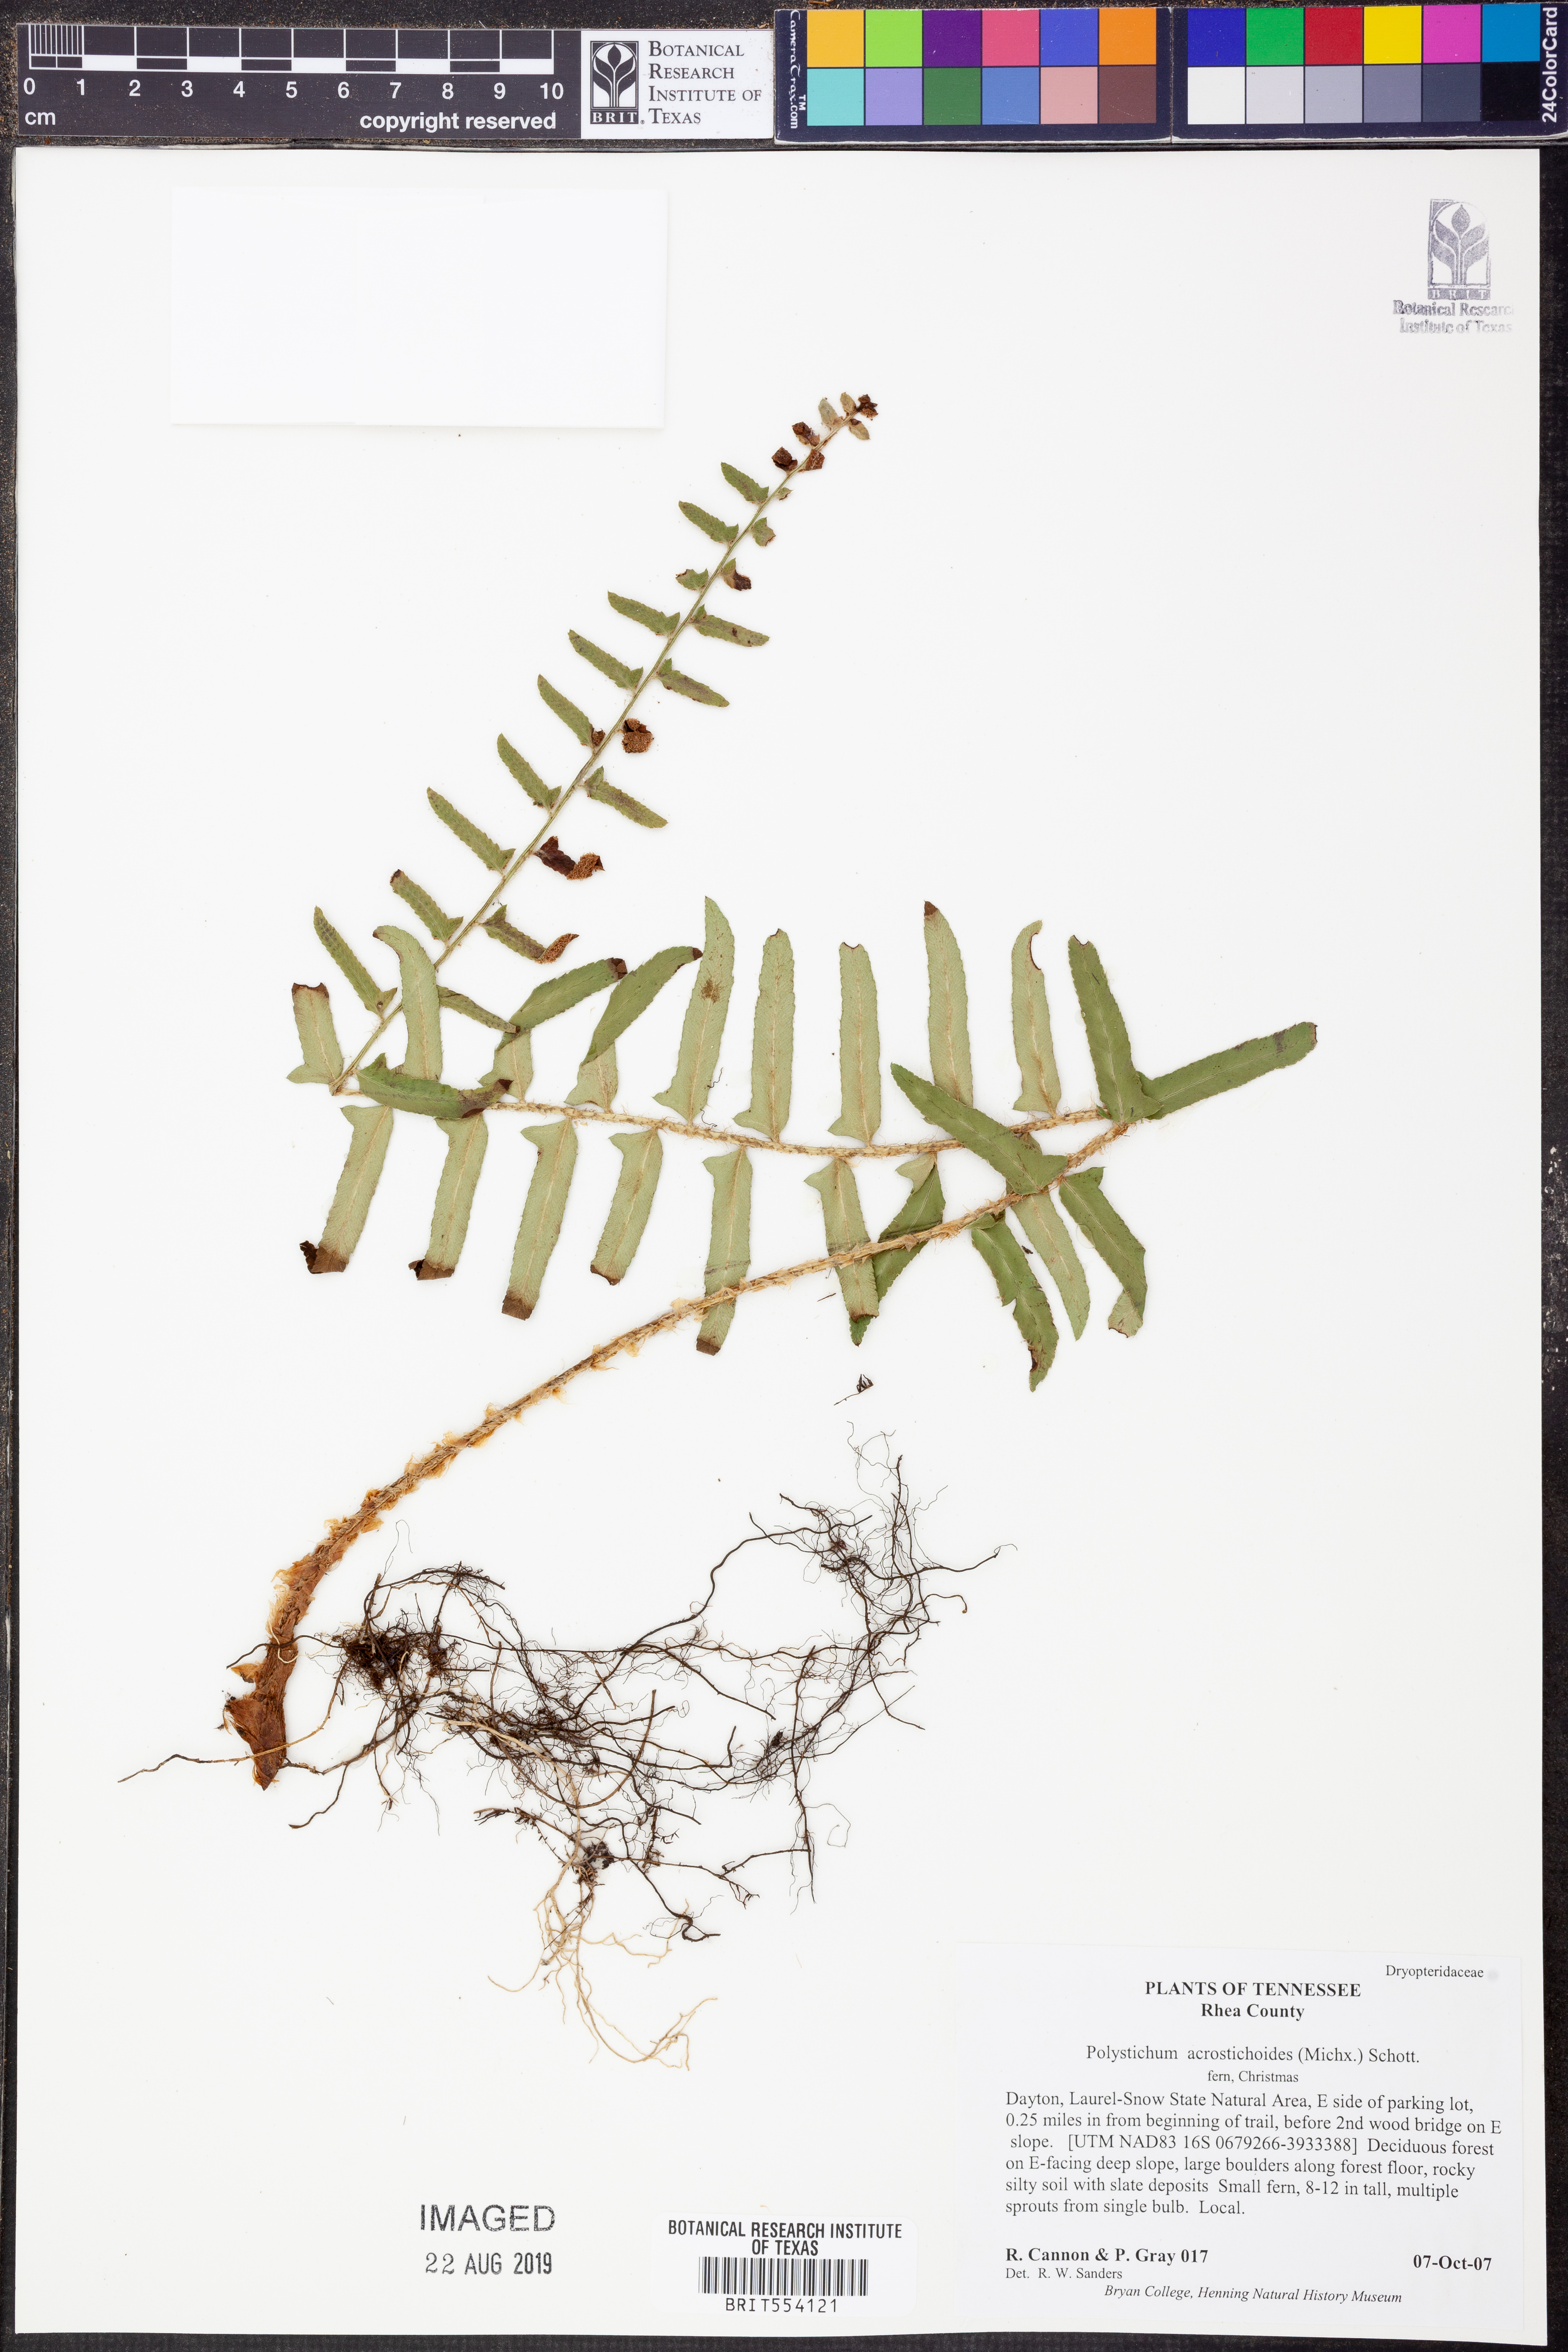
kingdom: Plantae
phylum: Tracheophyta
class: Polypodiopsida
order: Polypodiales
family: Dryopteridaceae
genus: Polystichum
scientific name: Polystichum acrostichoides
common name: Christmas fern
